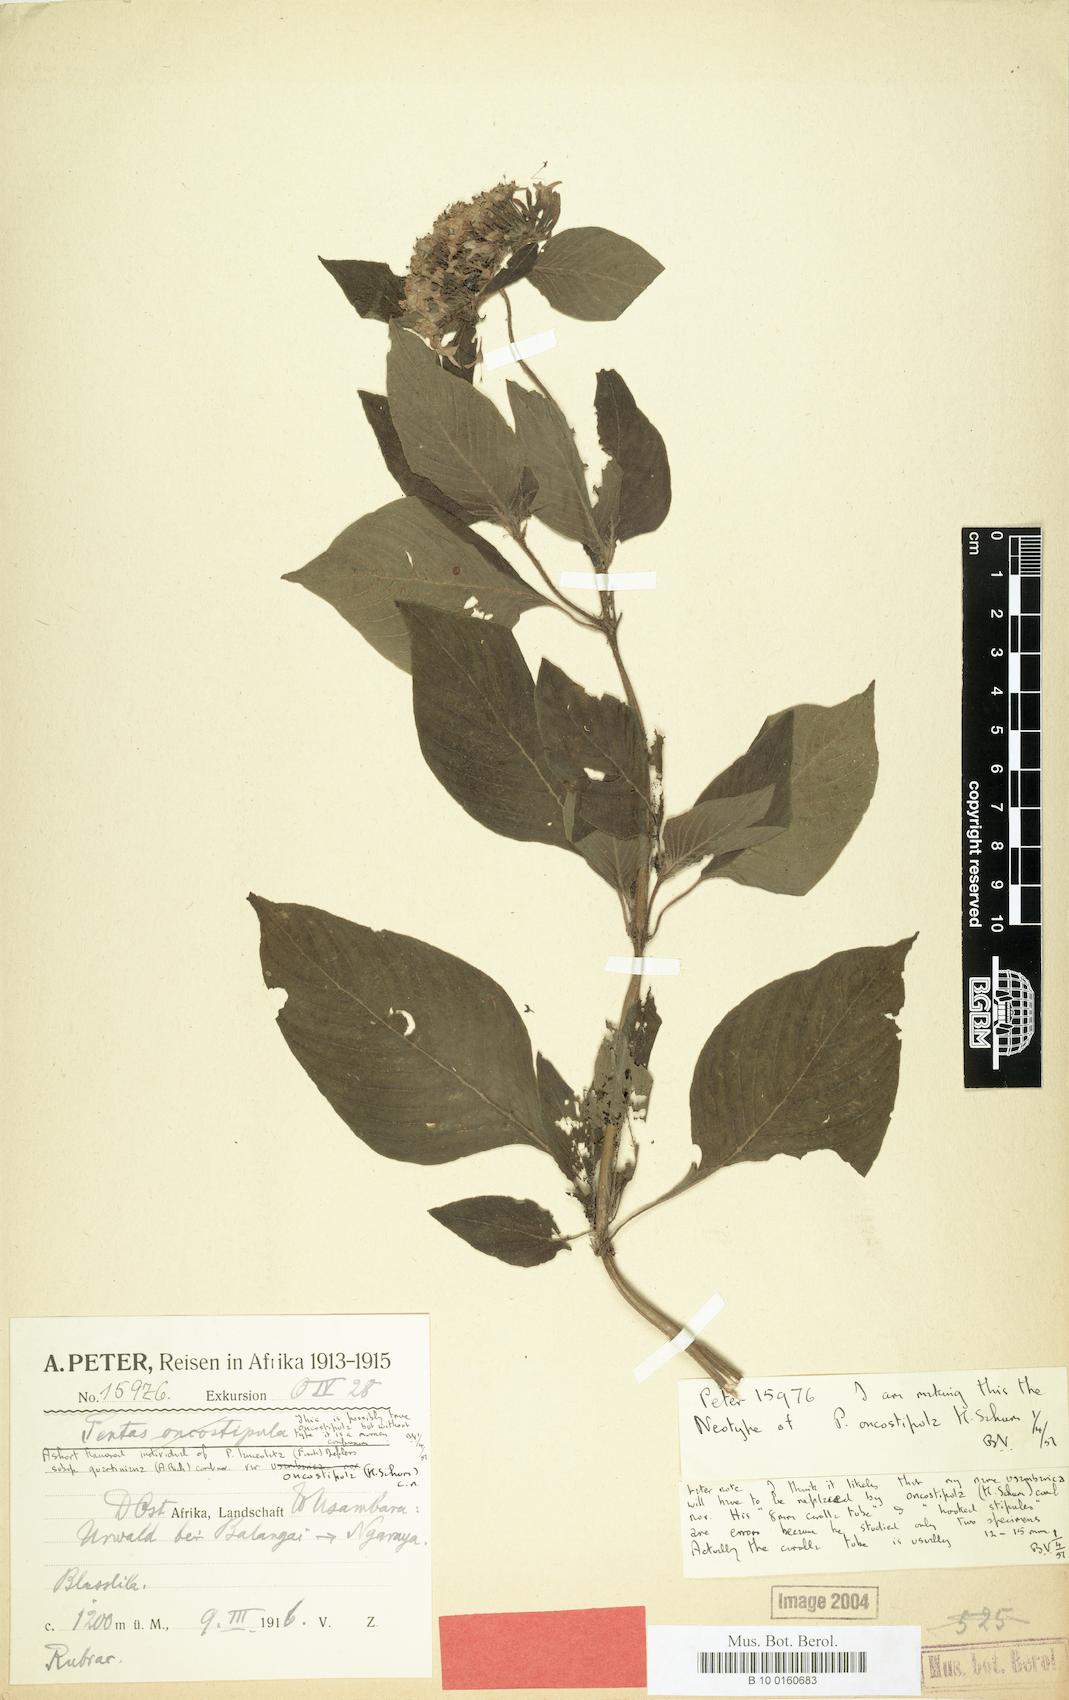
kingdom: Plantae
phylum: Tracheophyta
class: Magnoliopsida
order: Gentianales
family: Rubiaceae
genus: Pentas
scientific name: Pentas lanceolata
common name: Egyptian starcluster
